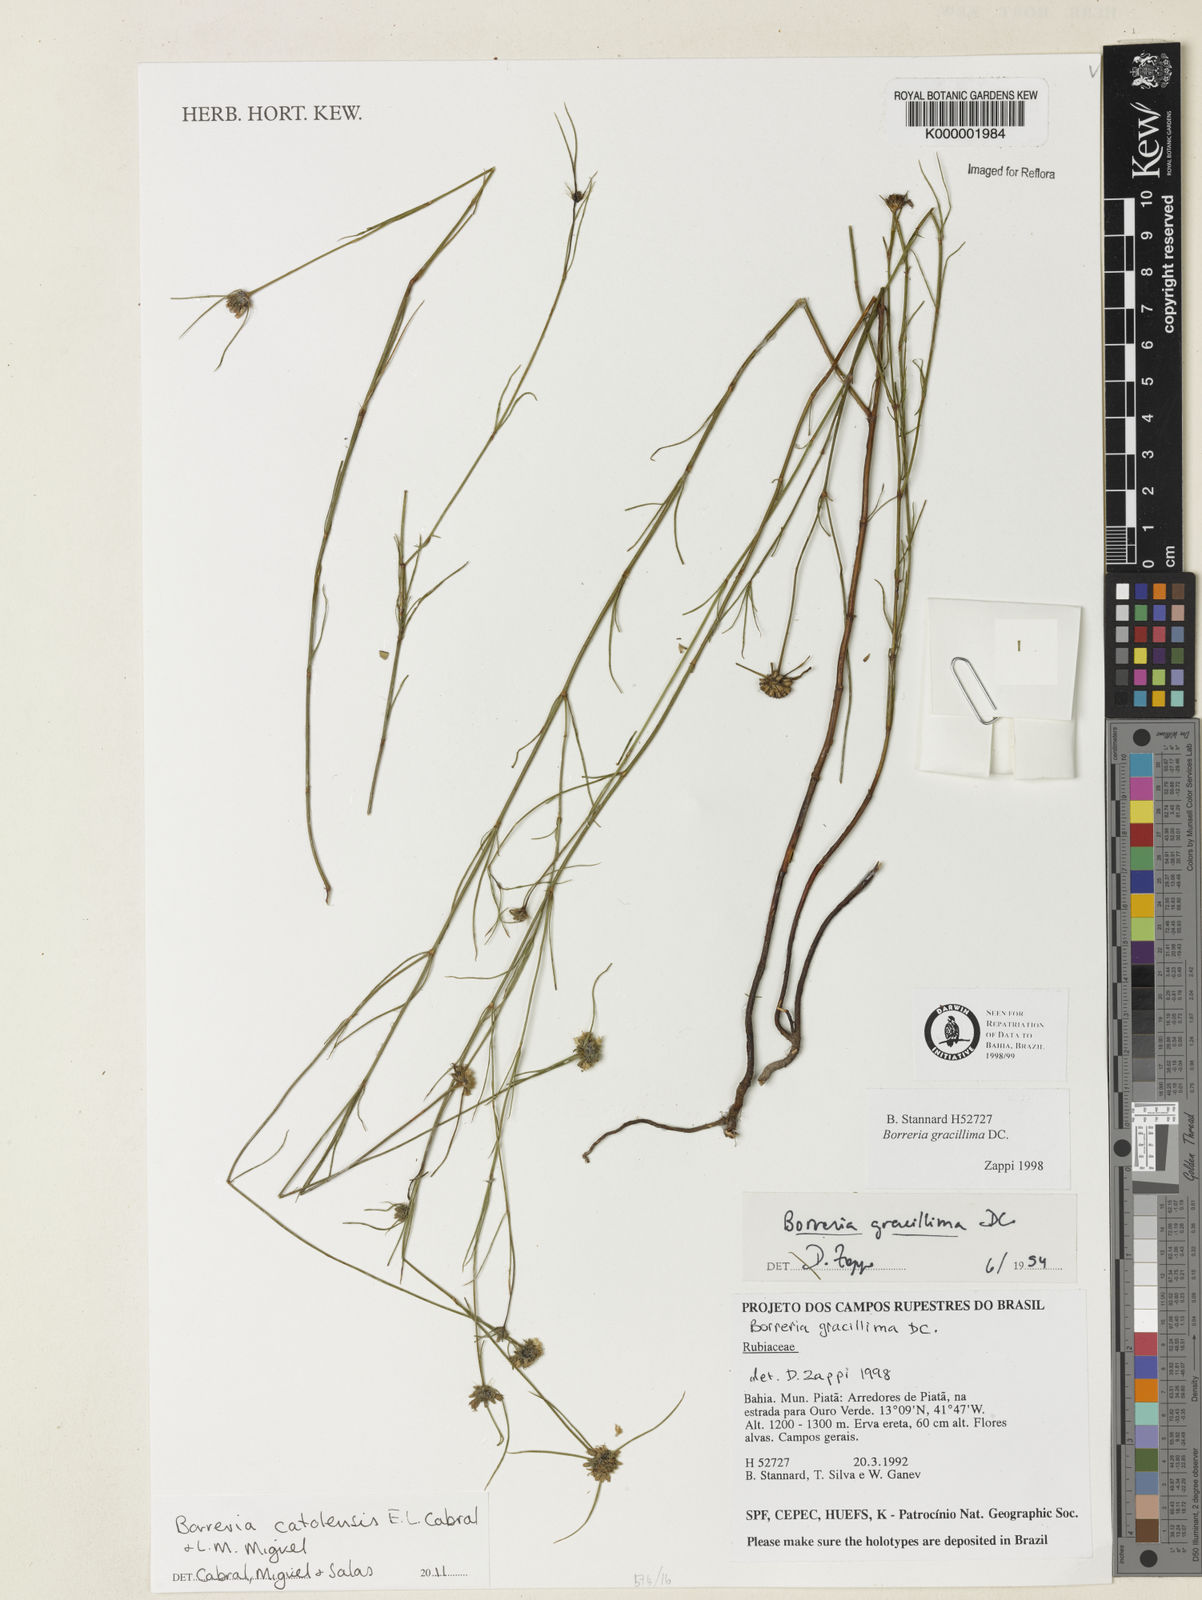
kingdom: Plantae
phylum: Tracheophyta
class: Magnoliopsida
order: Gentianales
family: Rubiaceae
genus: Spermacoce
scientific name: Spermacoce Borreria catolensis
